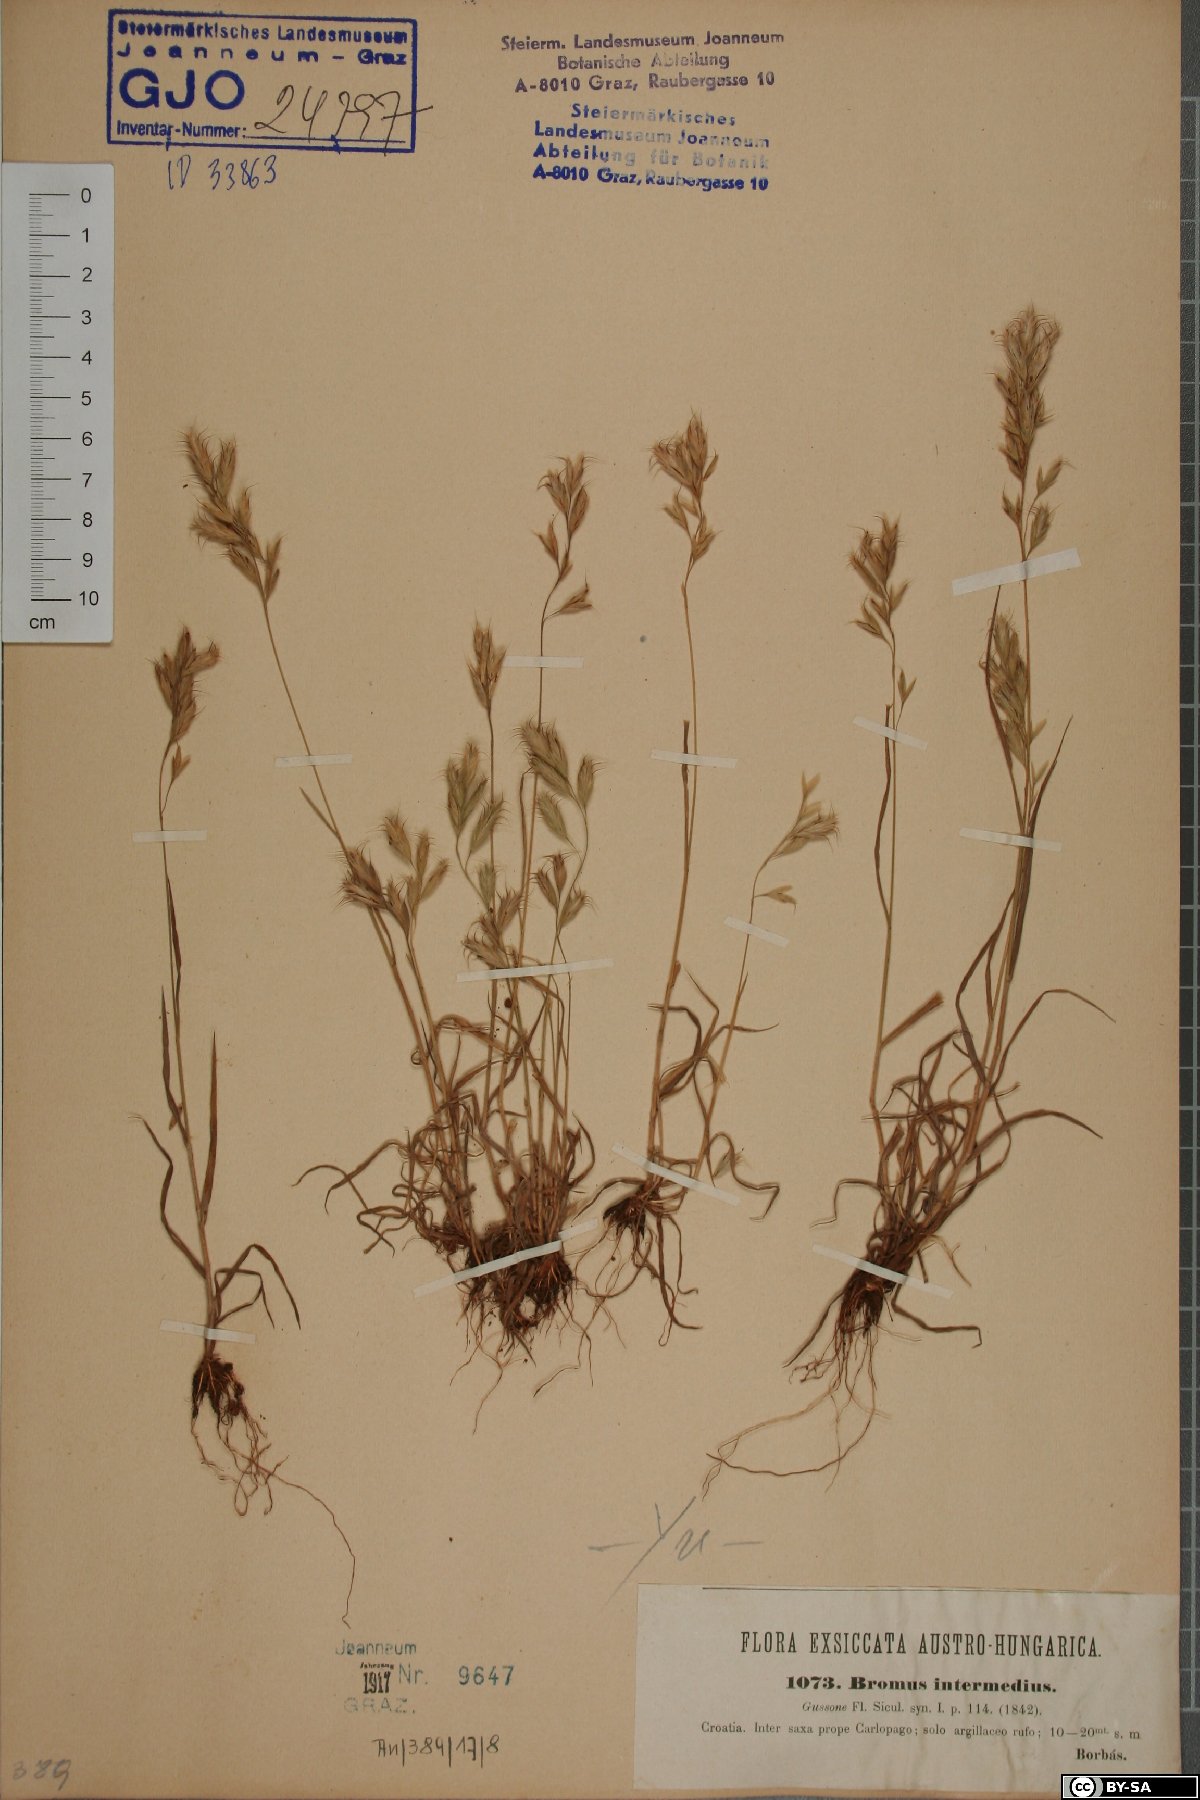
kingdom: Plantae
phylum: Tracheophyta
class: Liliopsida
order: Poales
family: Poaceae
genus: Bromus
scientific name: Bromus intermedius
